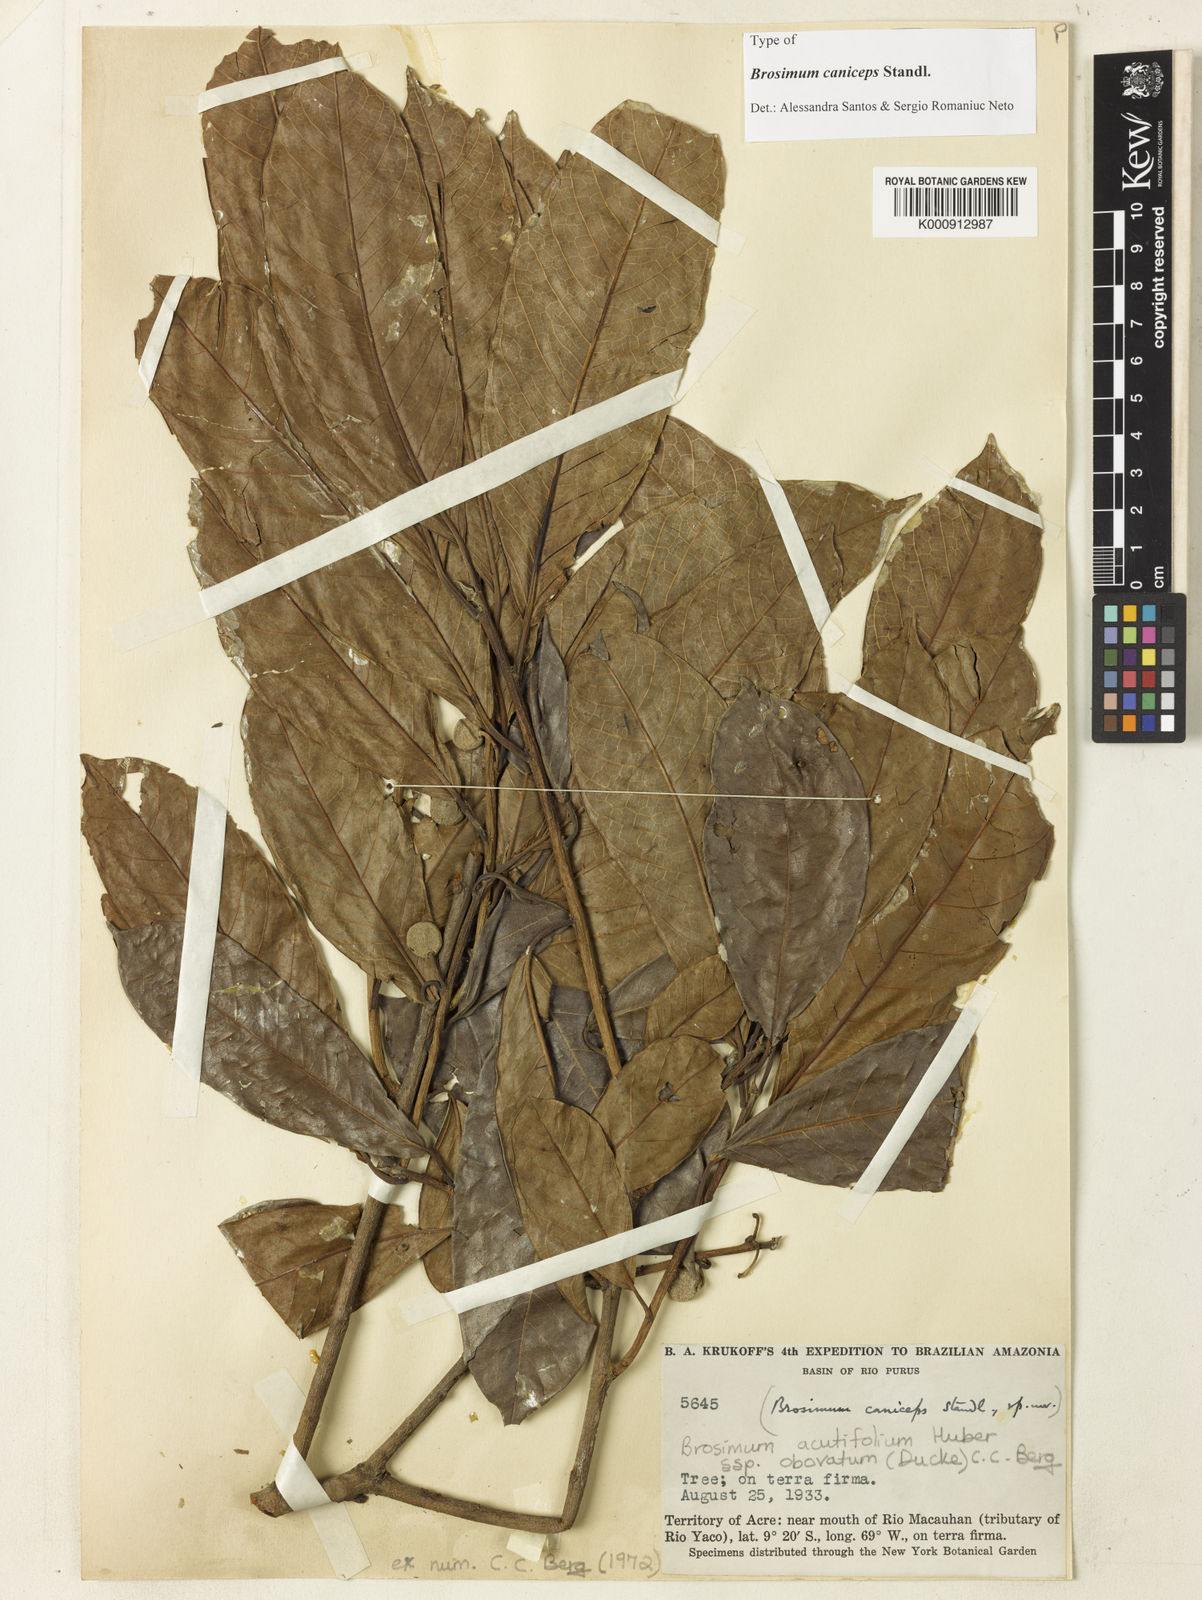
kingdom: Plantae
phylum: Tracheophyta
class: Magnoliopsida
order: Rosales
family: Moraceae
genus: Brosimum
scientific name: Brosimum acutifolium
